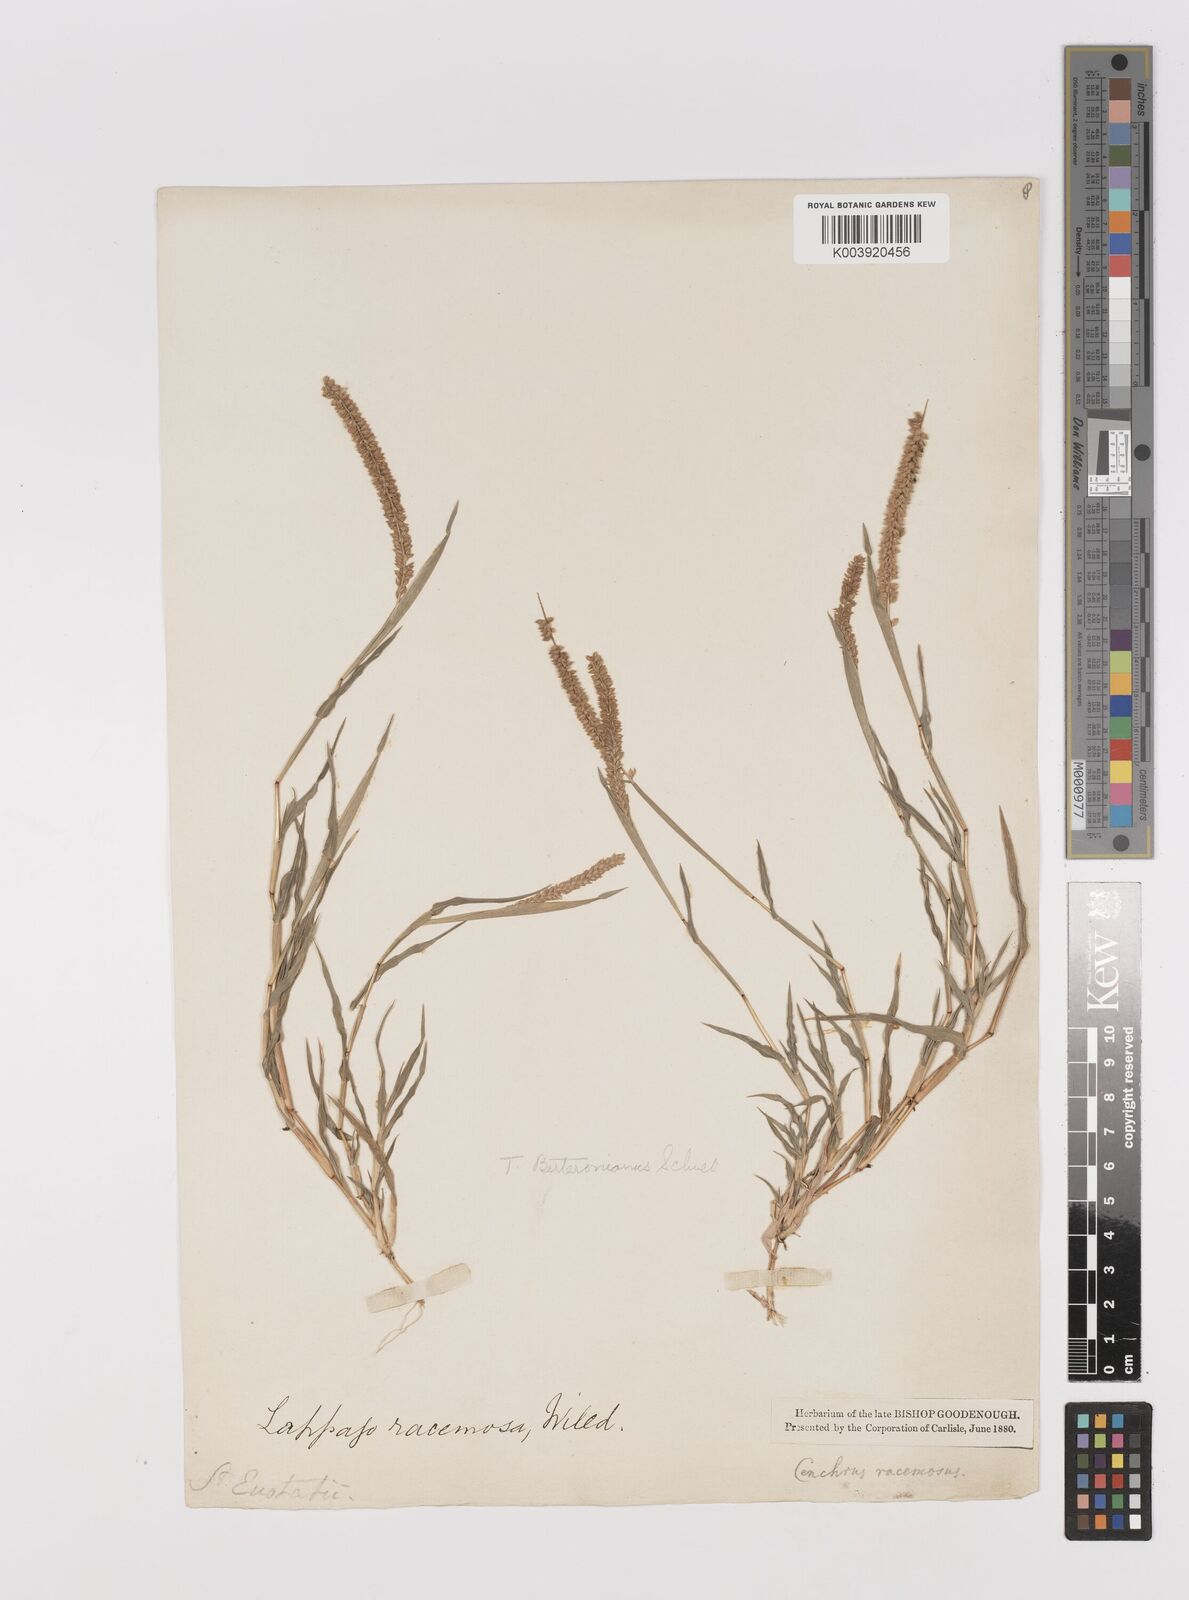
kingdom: Plantae
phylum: Tracheophyta
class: Liliopsida
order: Poales
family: Poaceae
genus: Tragus
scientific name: Tragus berteronianus
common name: African bur-grass
